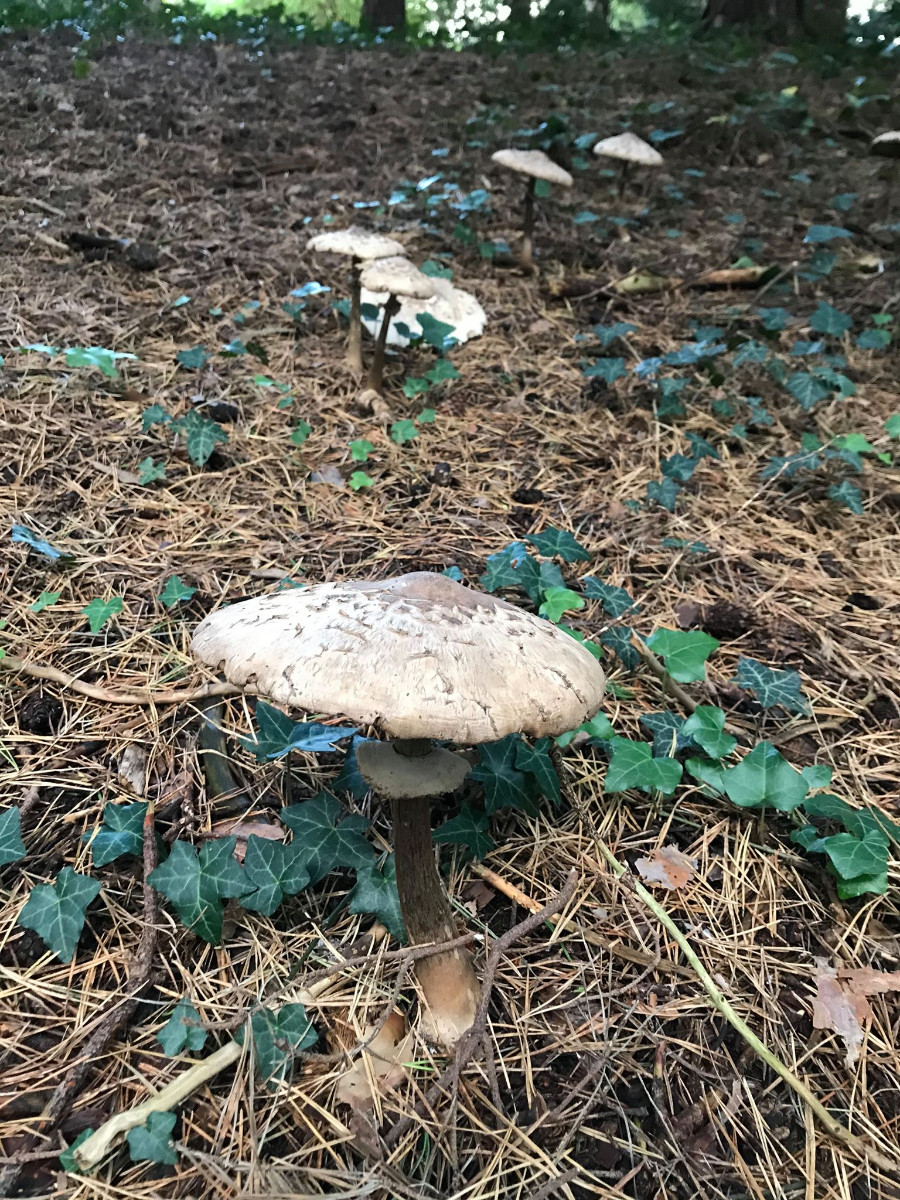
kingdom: Fungi
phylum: Basidiomycota
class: Agaricomycetes
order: Agaricales
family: Agaricaceae
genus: Macrolepiota
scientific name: Macrolepiota procera
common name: stor kæmpeparasolhat
